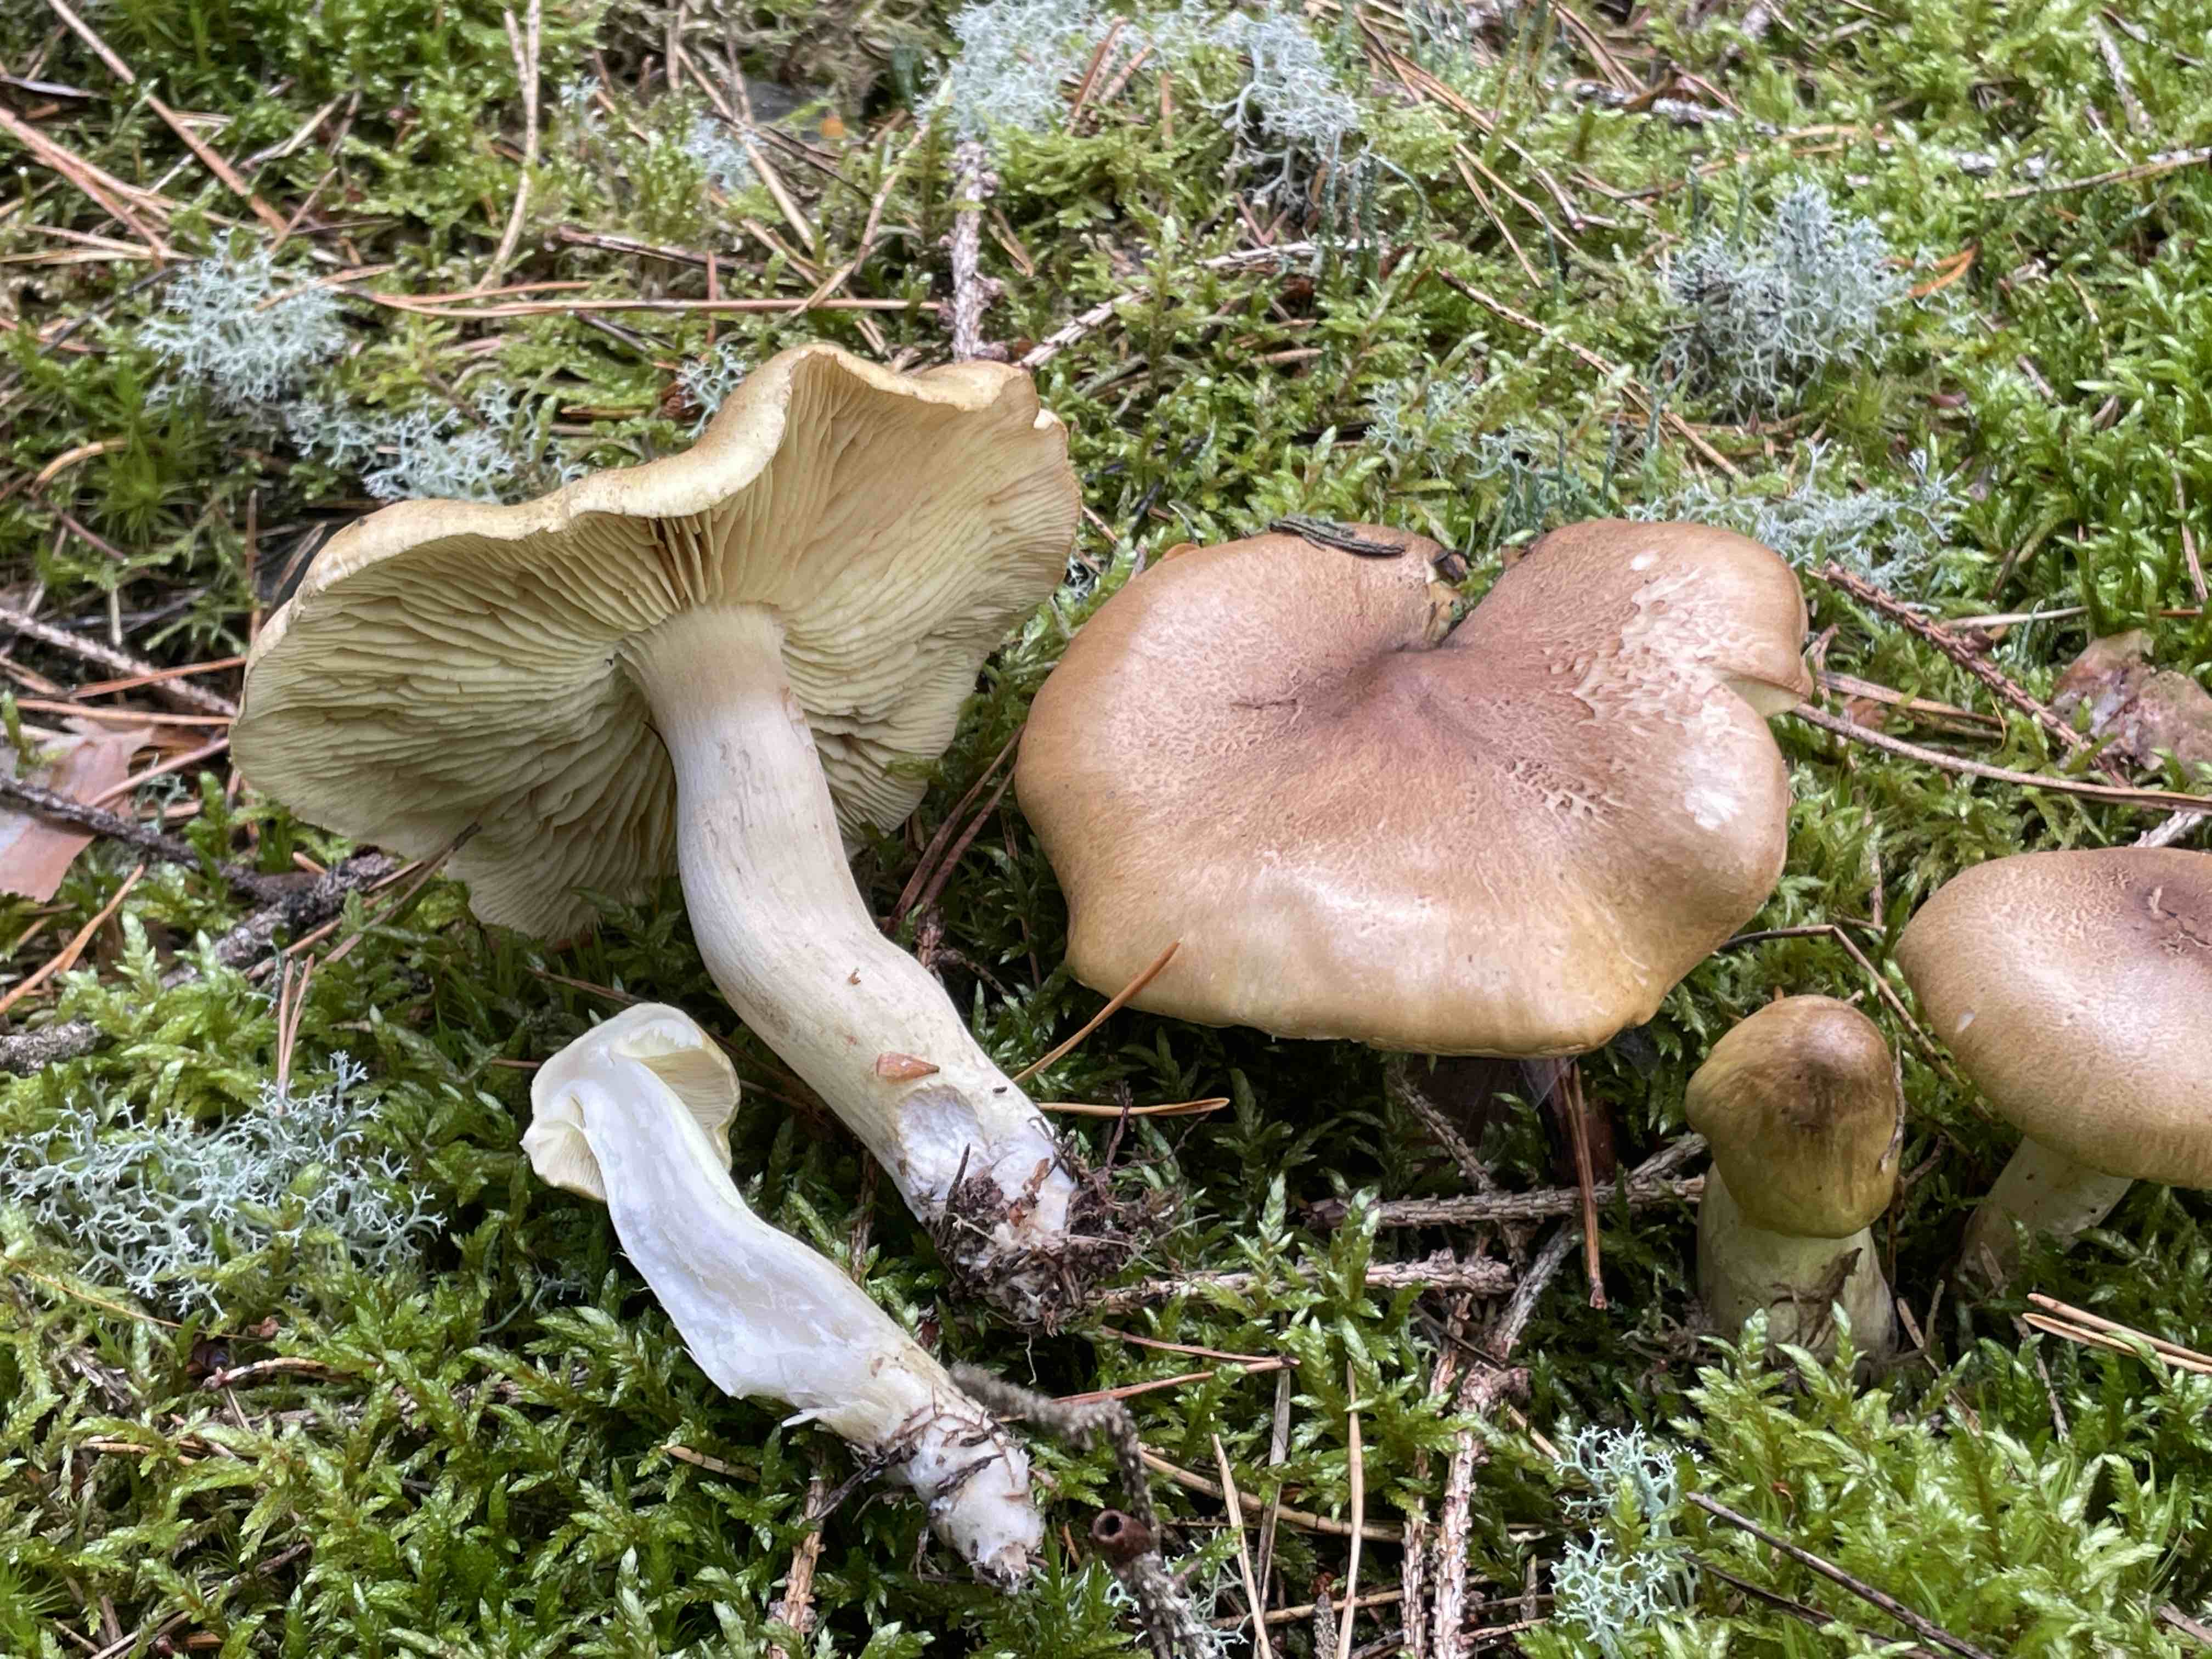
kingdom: Fungi
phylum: Basidiomycota
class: Agaricomycetes
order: Agaricales
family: Tricholomataceae
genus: Tricholoma
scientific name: Tricholoma aestuans
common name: kegle-ridderhat
